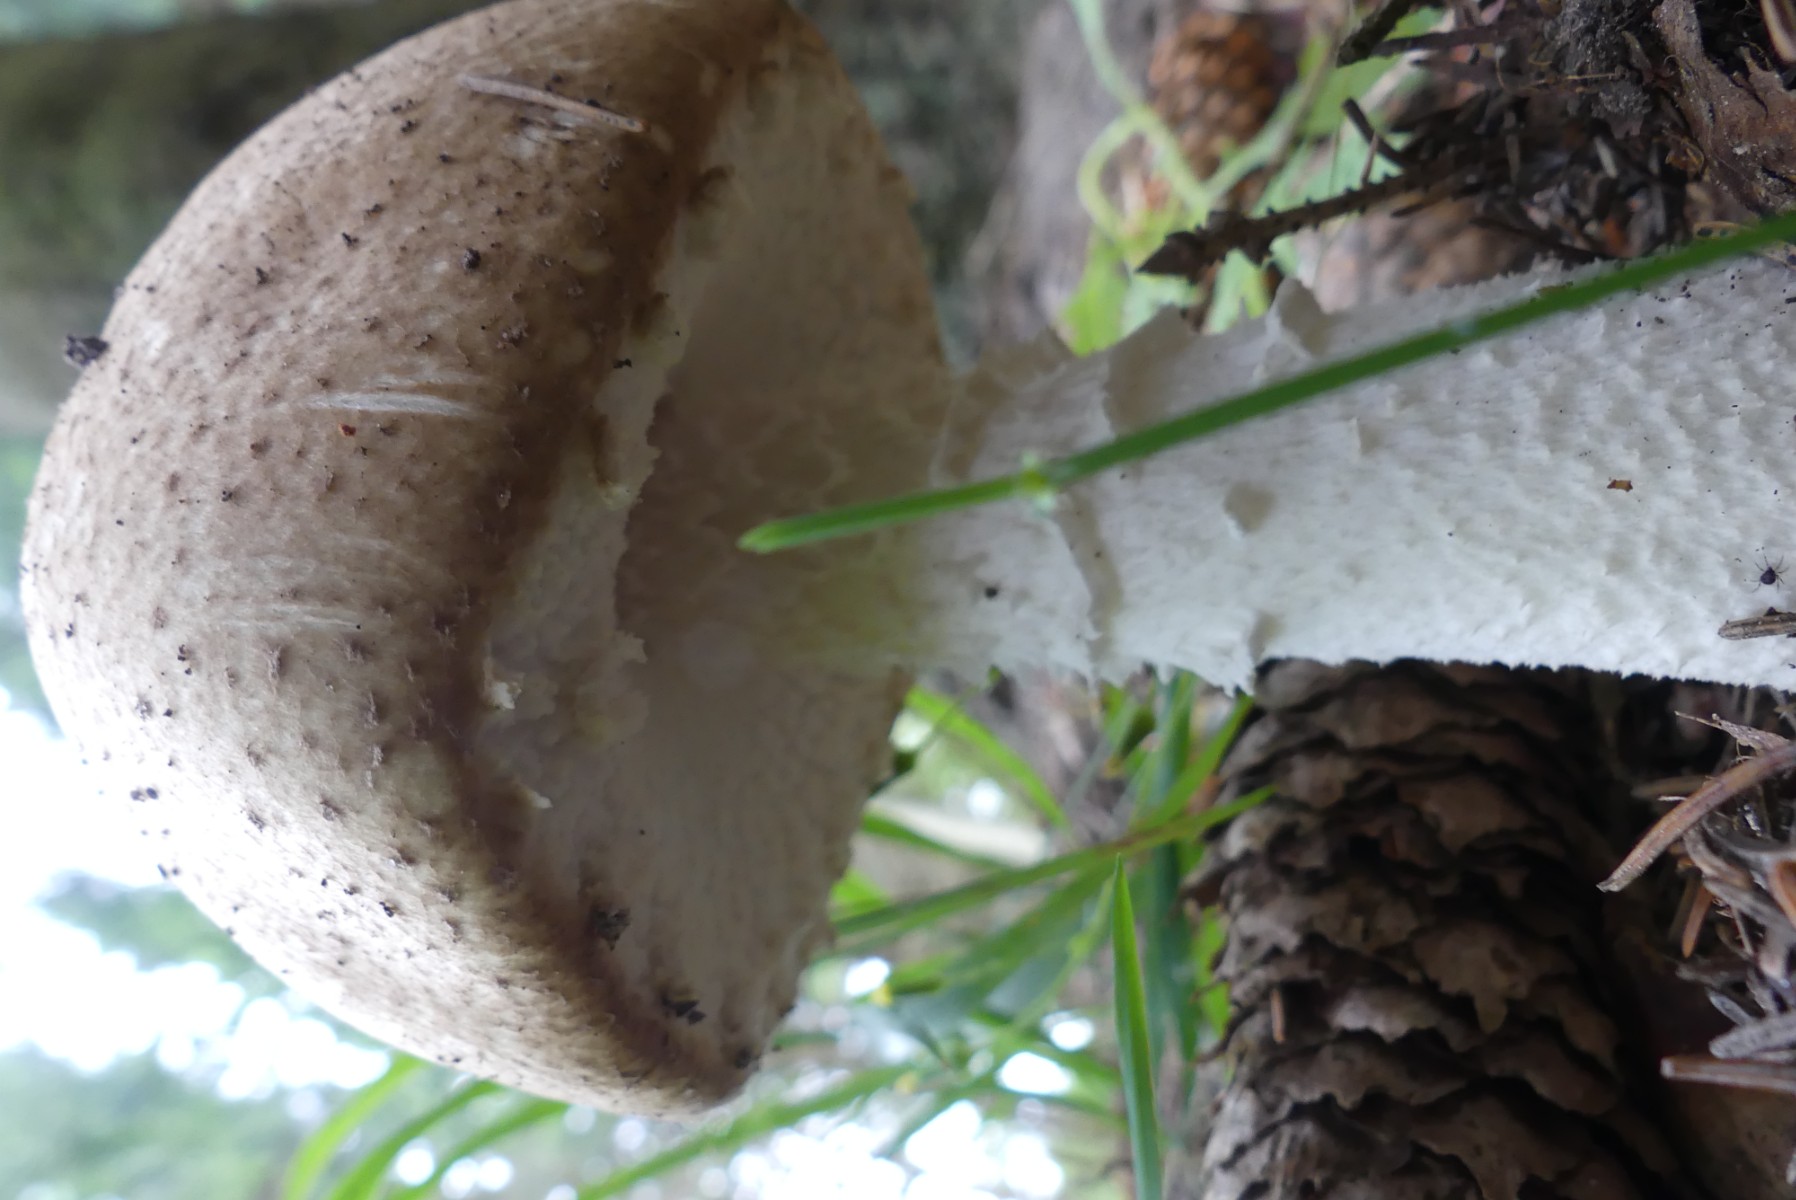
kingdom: Fungi
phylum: Basidiomycota
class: Agaricomycetes
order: Agaricales
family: Agaricaceae
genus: Agaricus
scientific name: Agaricus augustus
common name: prægtig champignon
